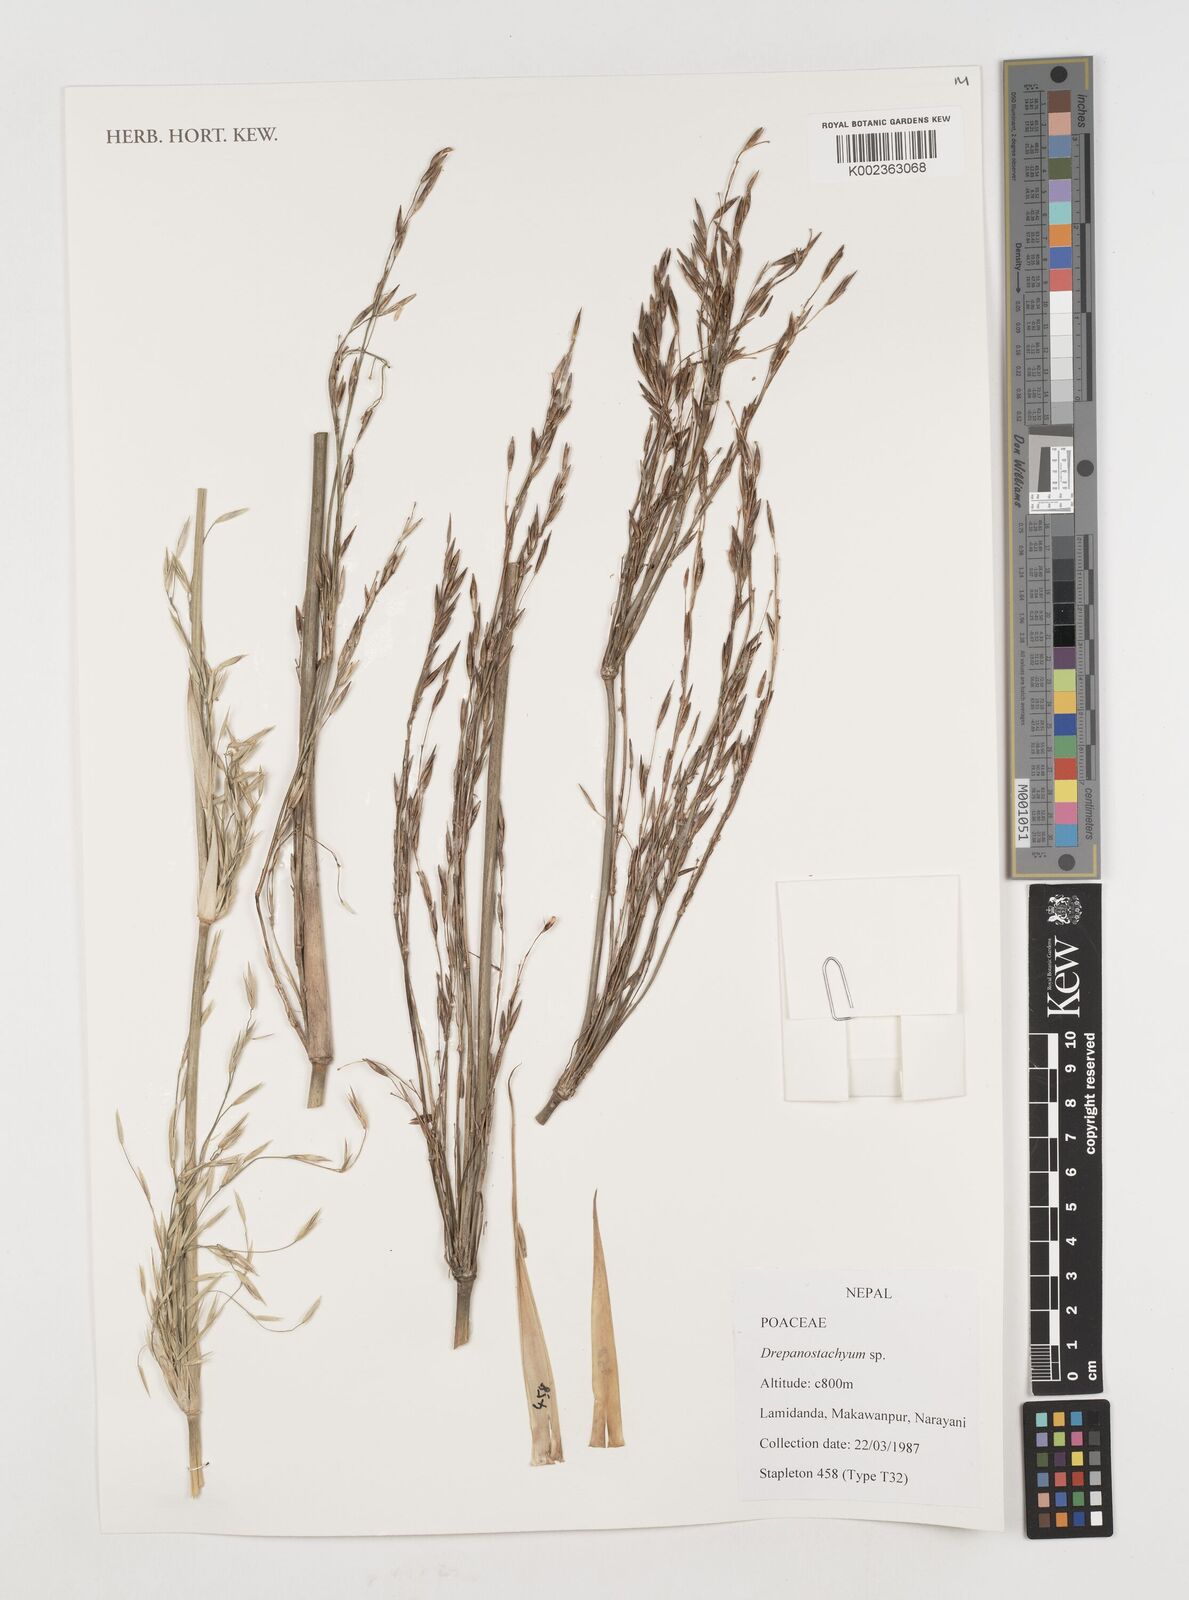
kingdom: Plantae
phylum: Tracheophyta
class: Liliopsida
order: Poales
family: Poaceae
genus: Drepanostachyum
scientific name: Drepanostachyum
